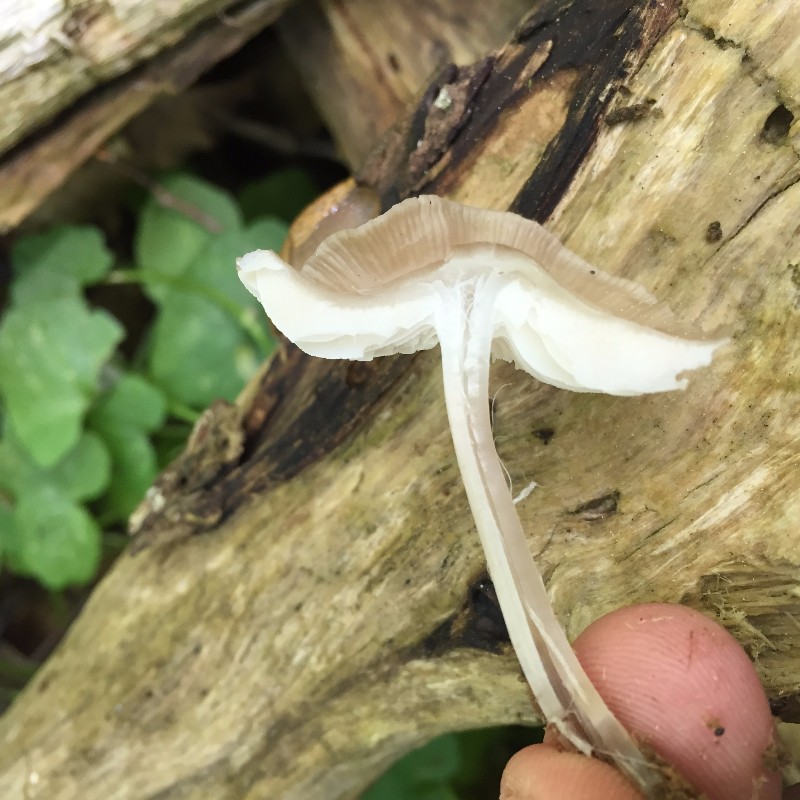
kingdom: Fungi
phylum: Basidiomycota
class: Agaricomycetes
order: Agaricales
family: Mycenaceae
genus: Mycena
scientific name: Mycena galericulata
